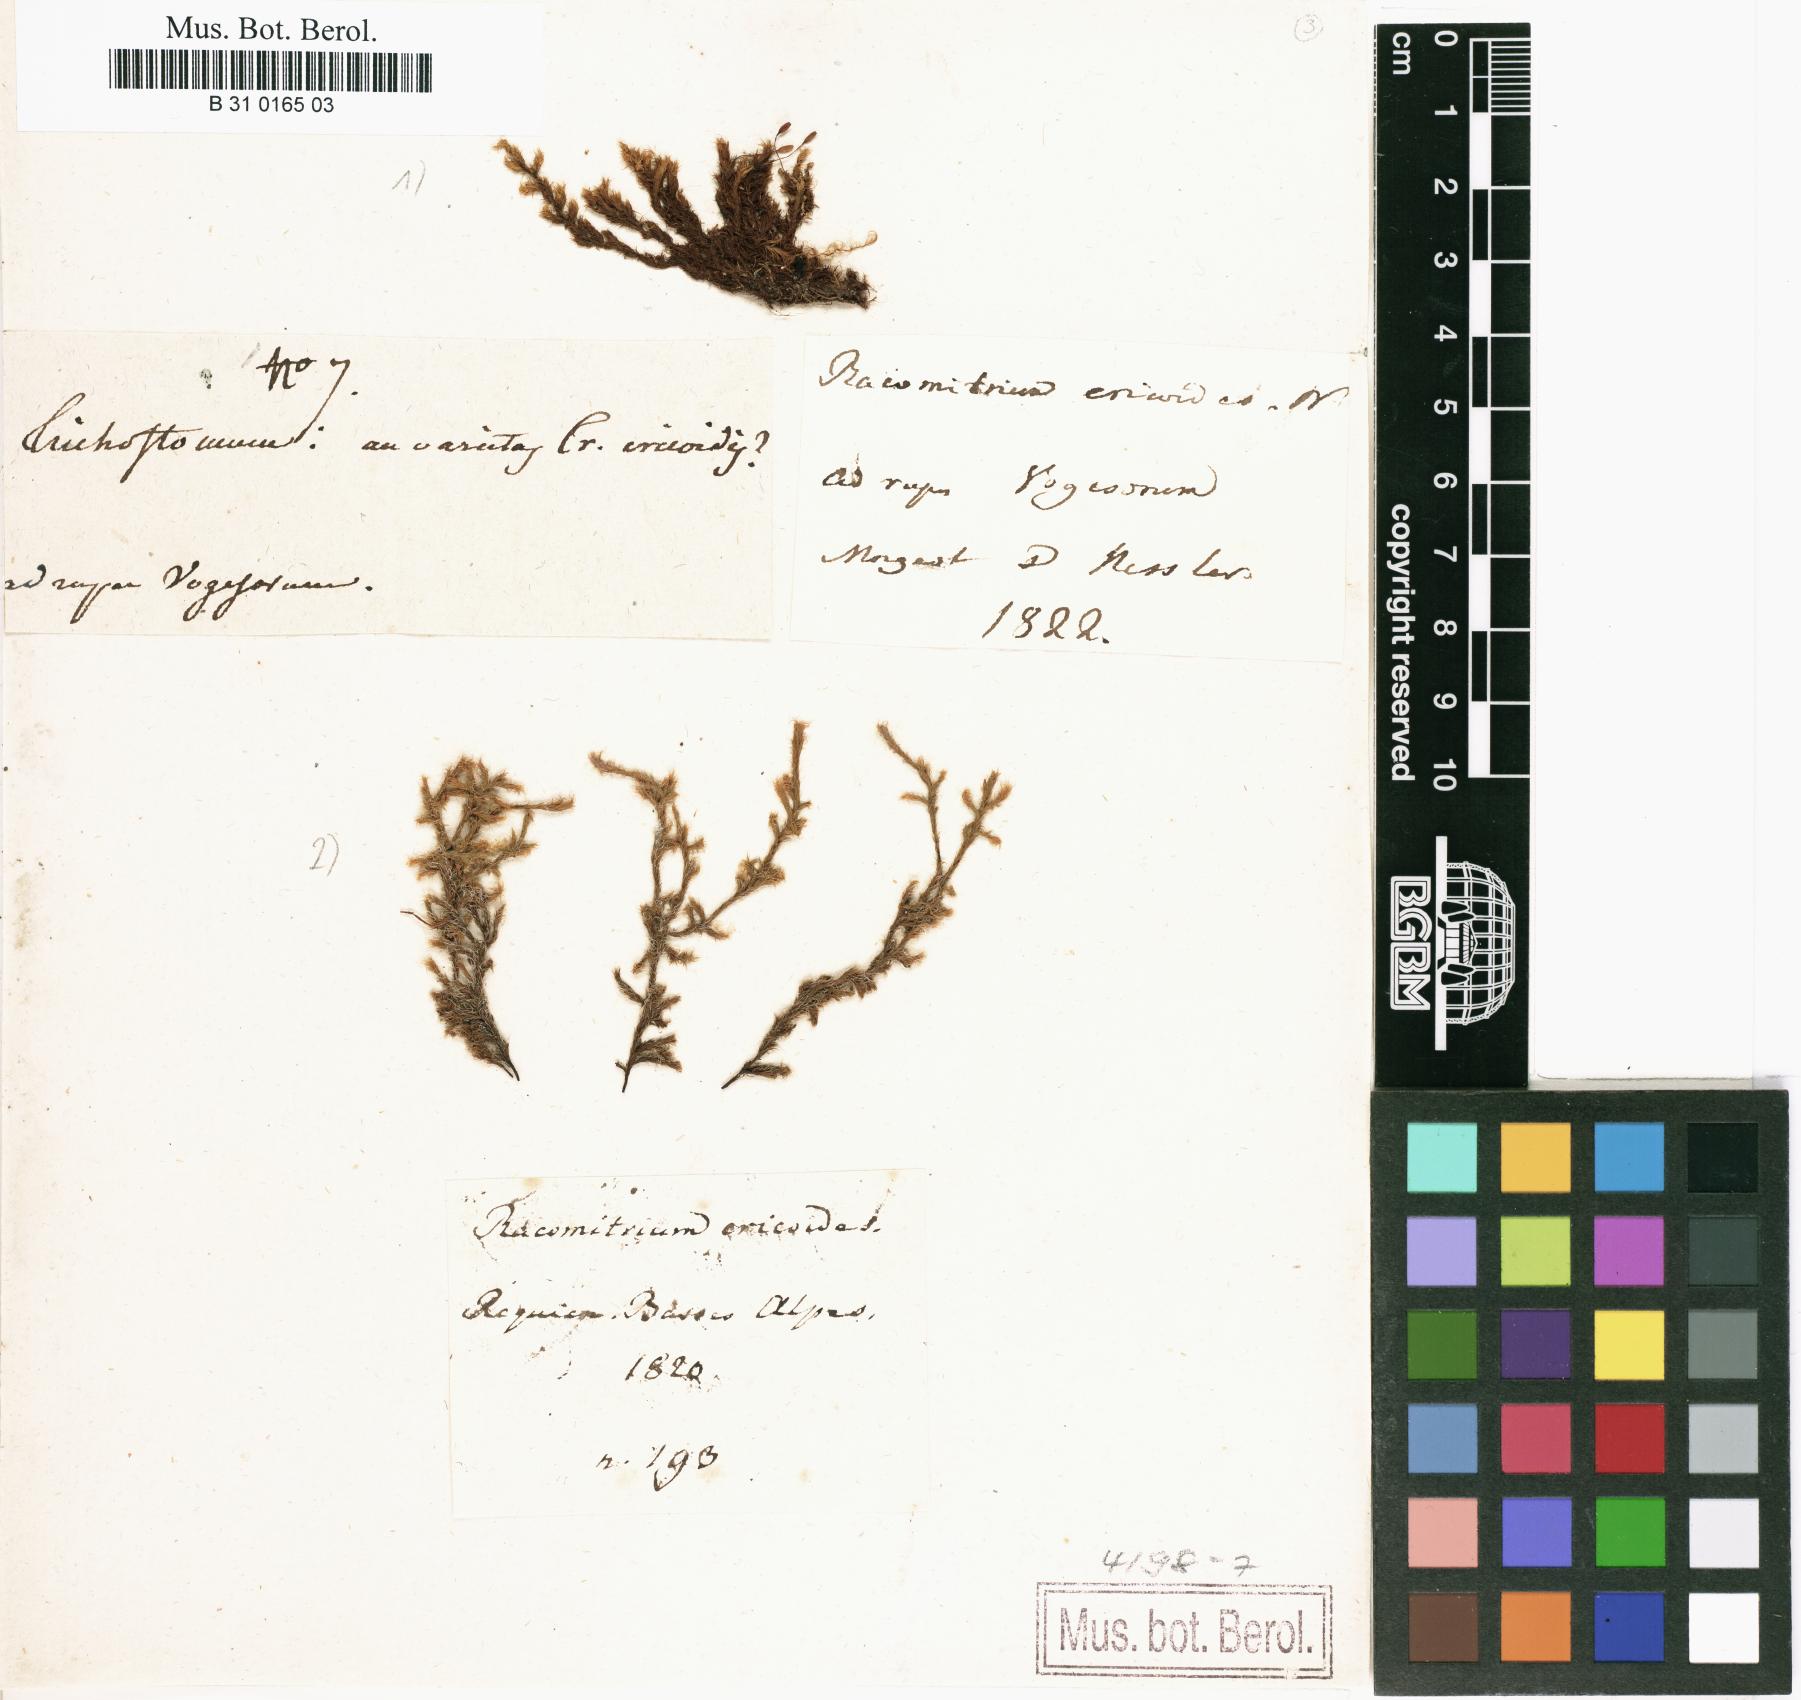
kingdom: Plantae
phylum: Bryophyta
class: Bryopsida
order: Grimmiales
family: Grimmiaceae
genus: Racomitrium
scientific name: Racomitrium lanuginosum
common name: Hoary rock moss
